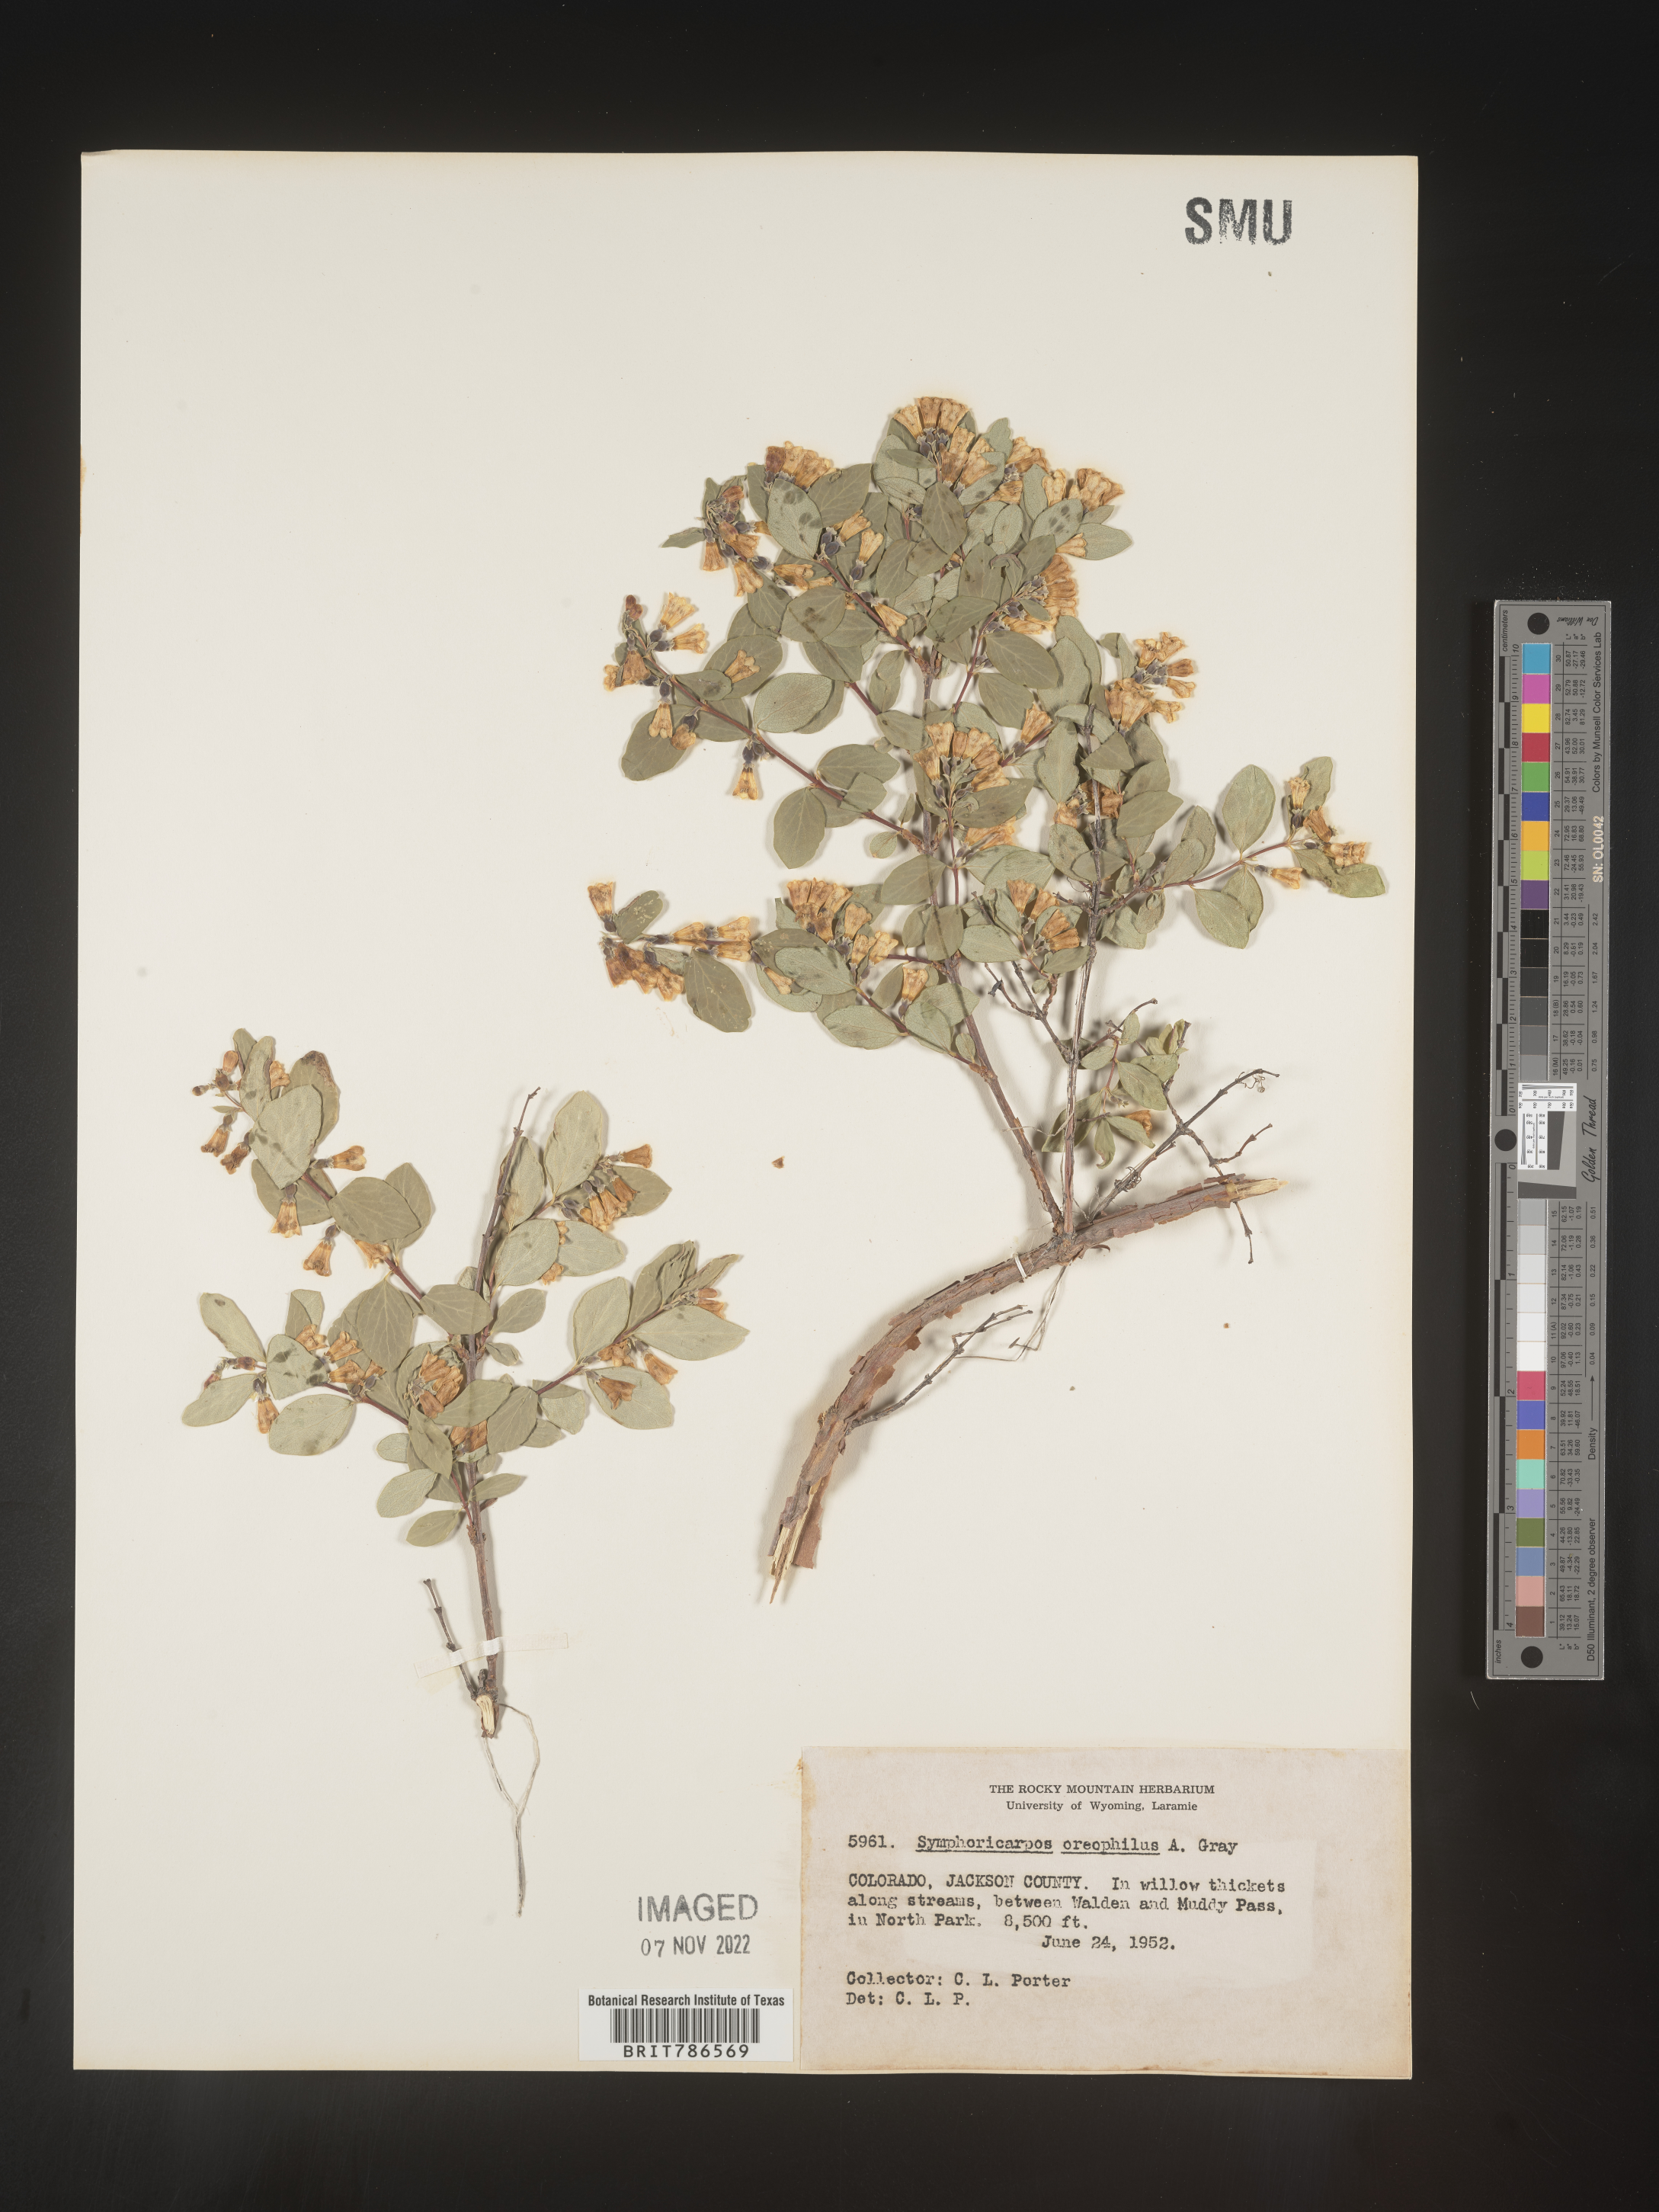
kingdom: Plantae
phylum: Tracheophyta
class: Magnoliopsida
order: Dipsacales
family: Caprifoliaceae
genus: Symphoricarpos
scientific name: Symphoricarpos oreophilus
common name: Mountain snowberry
